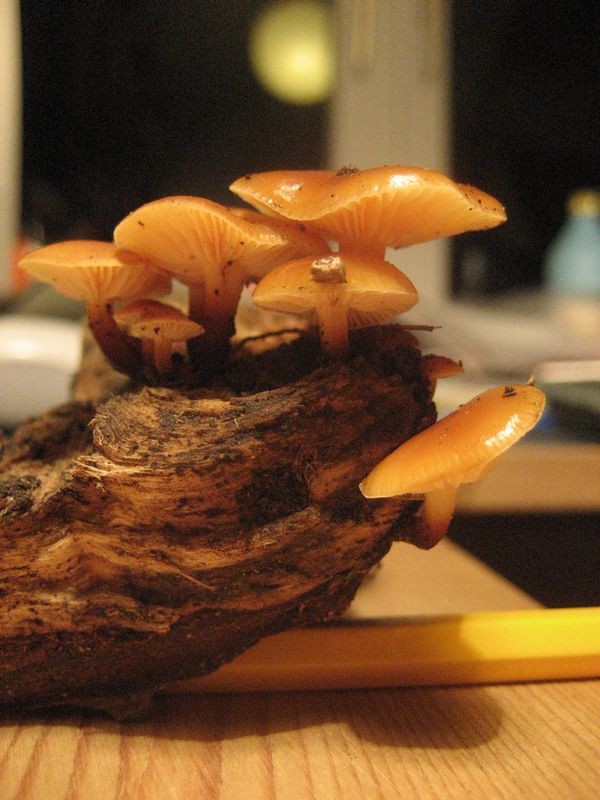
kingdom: Fungi
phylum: Basidiomycota
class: Agaricomycetes
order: Agaricales
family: Physalacriaceae
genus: Flammulina
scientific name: Flammulina elastica
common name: pile-fløjlsfod
